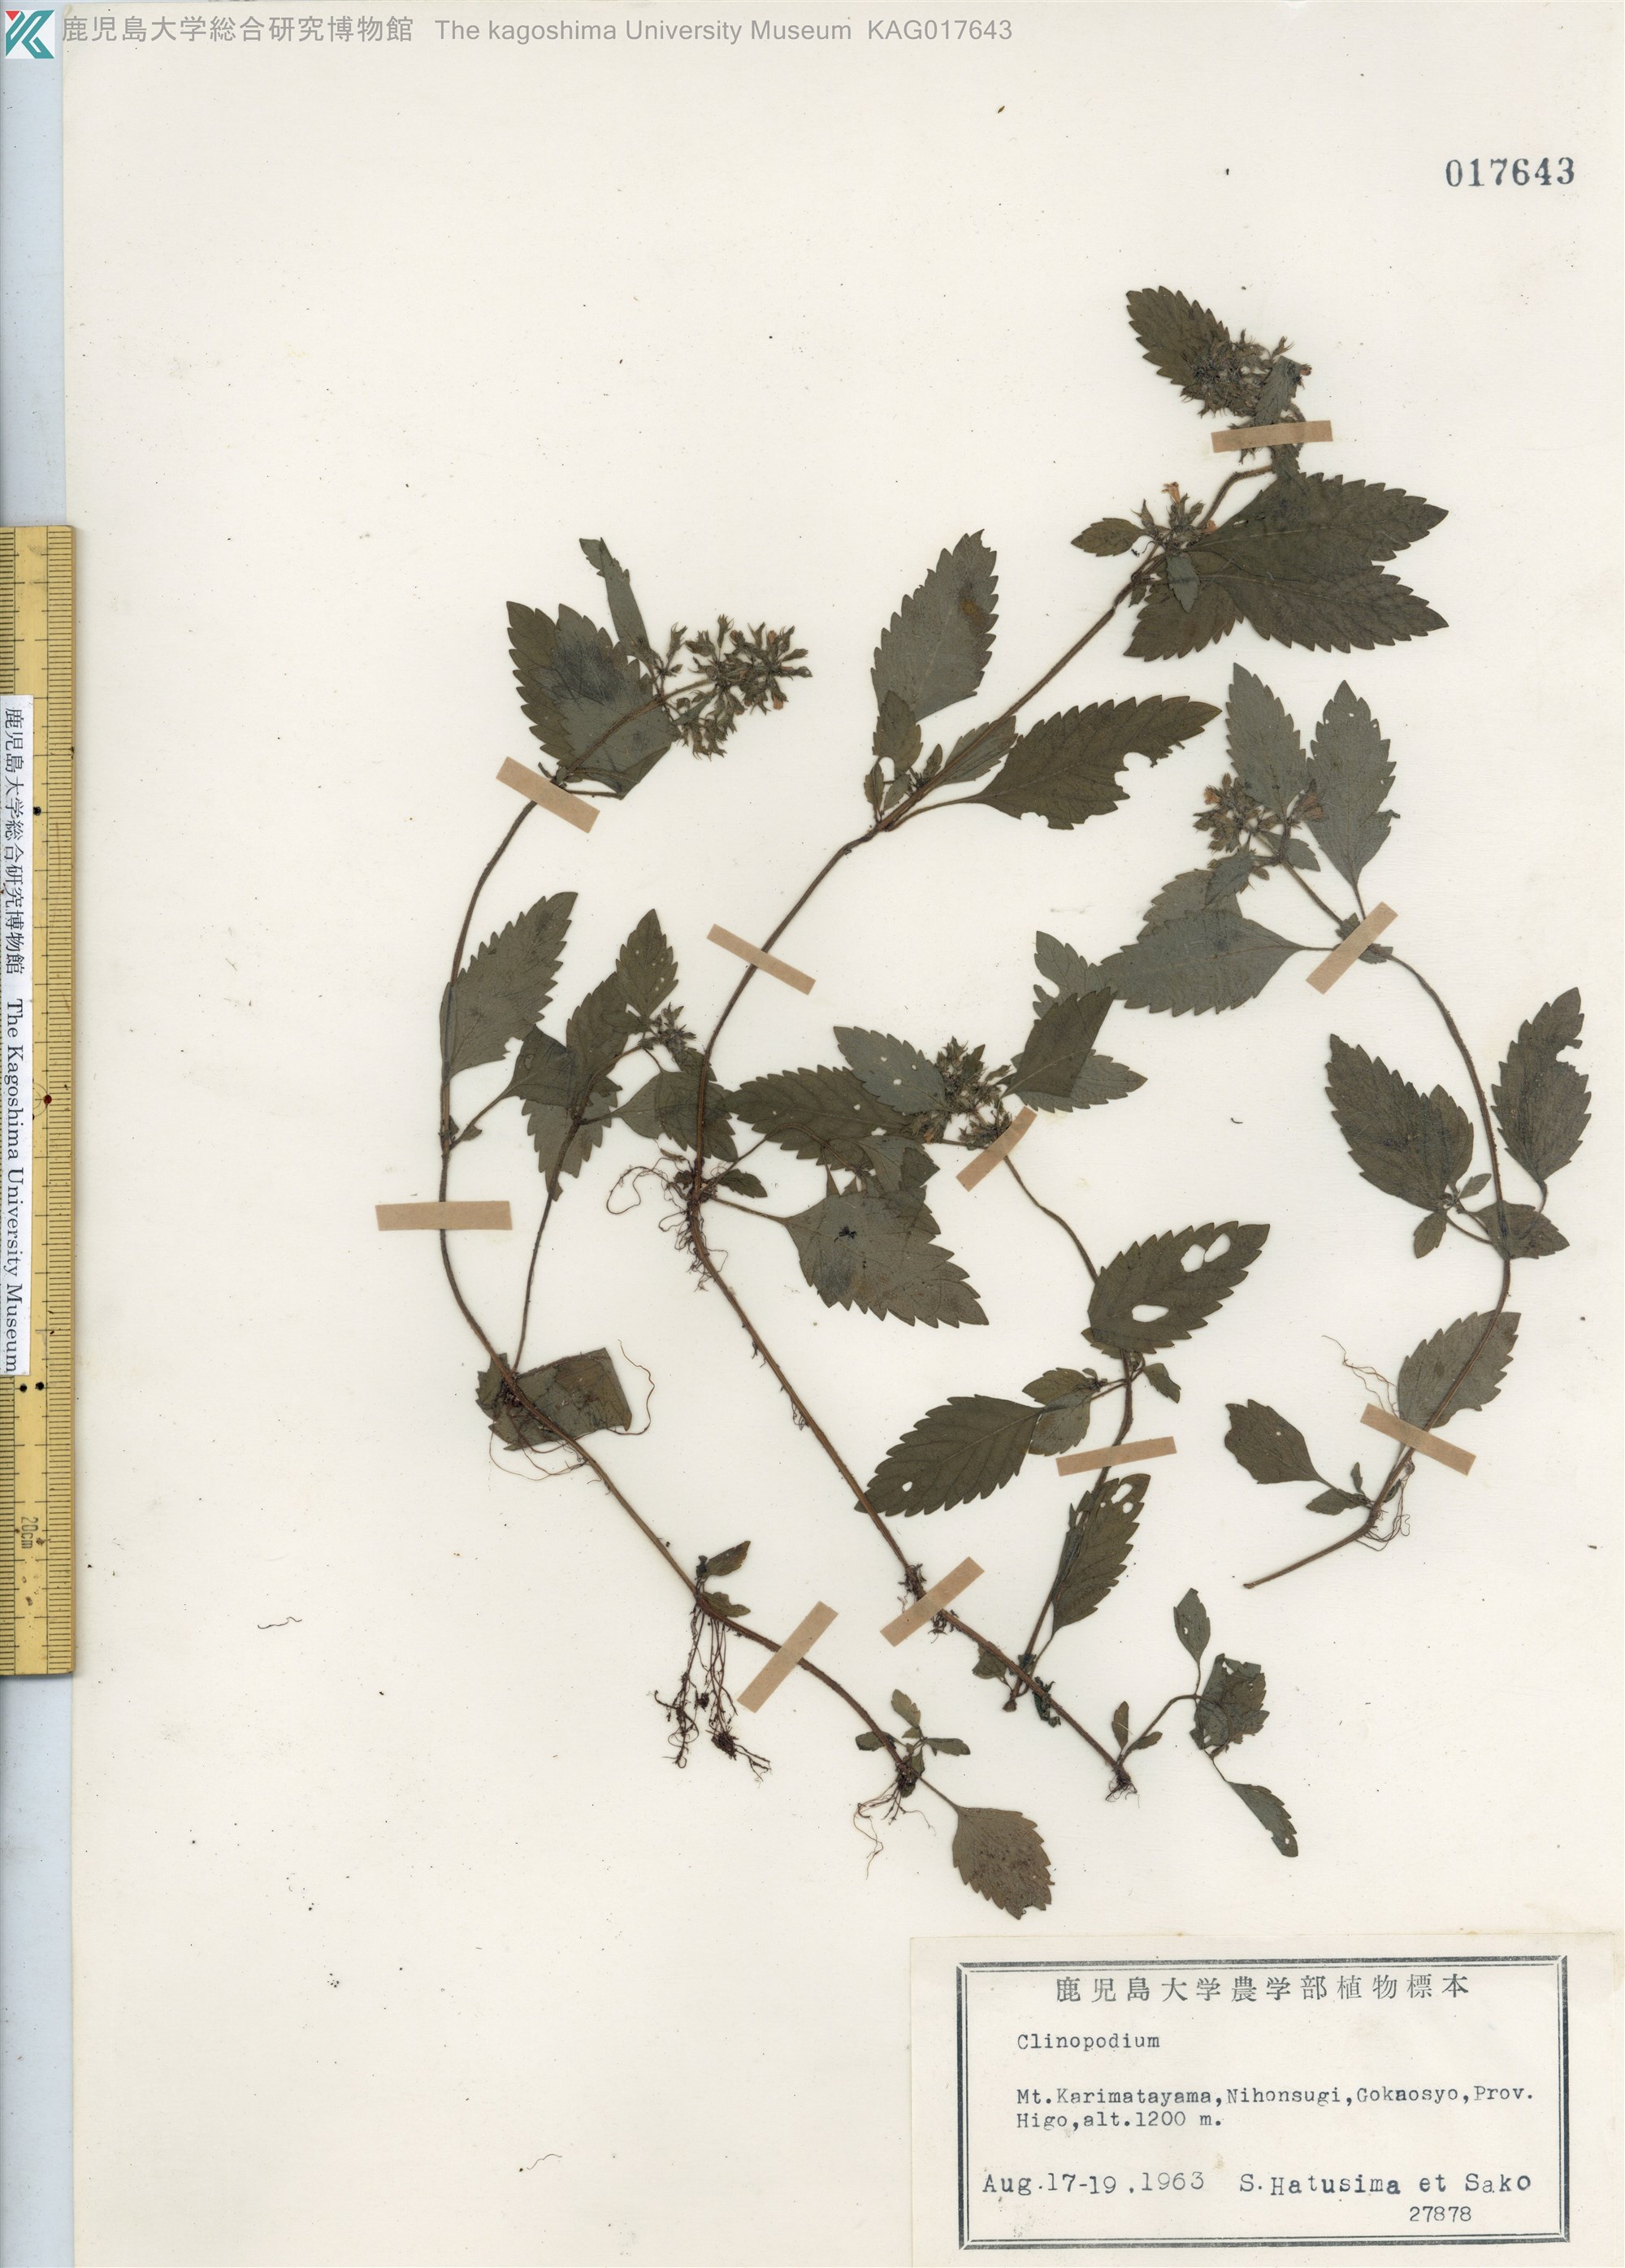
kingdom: Plantae
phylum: Tracheophyta
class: Magnoliopsida
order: Lamiales
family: Lamiaceae
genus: Clinopodium
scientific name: Clinopodium micranthum
